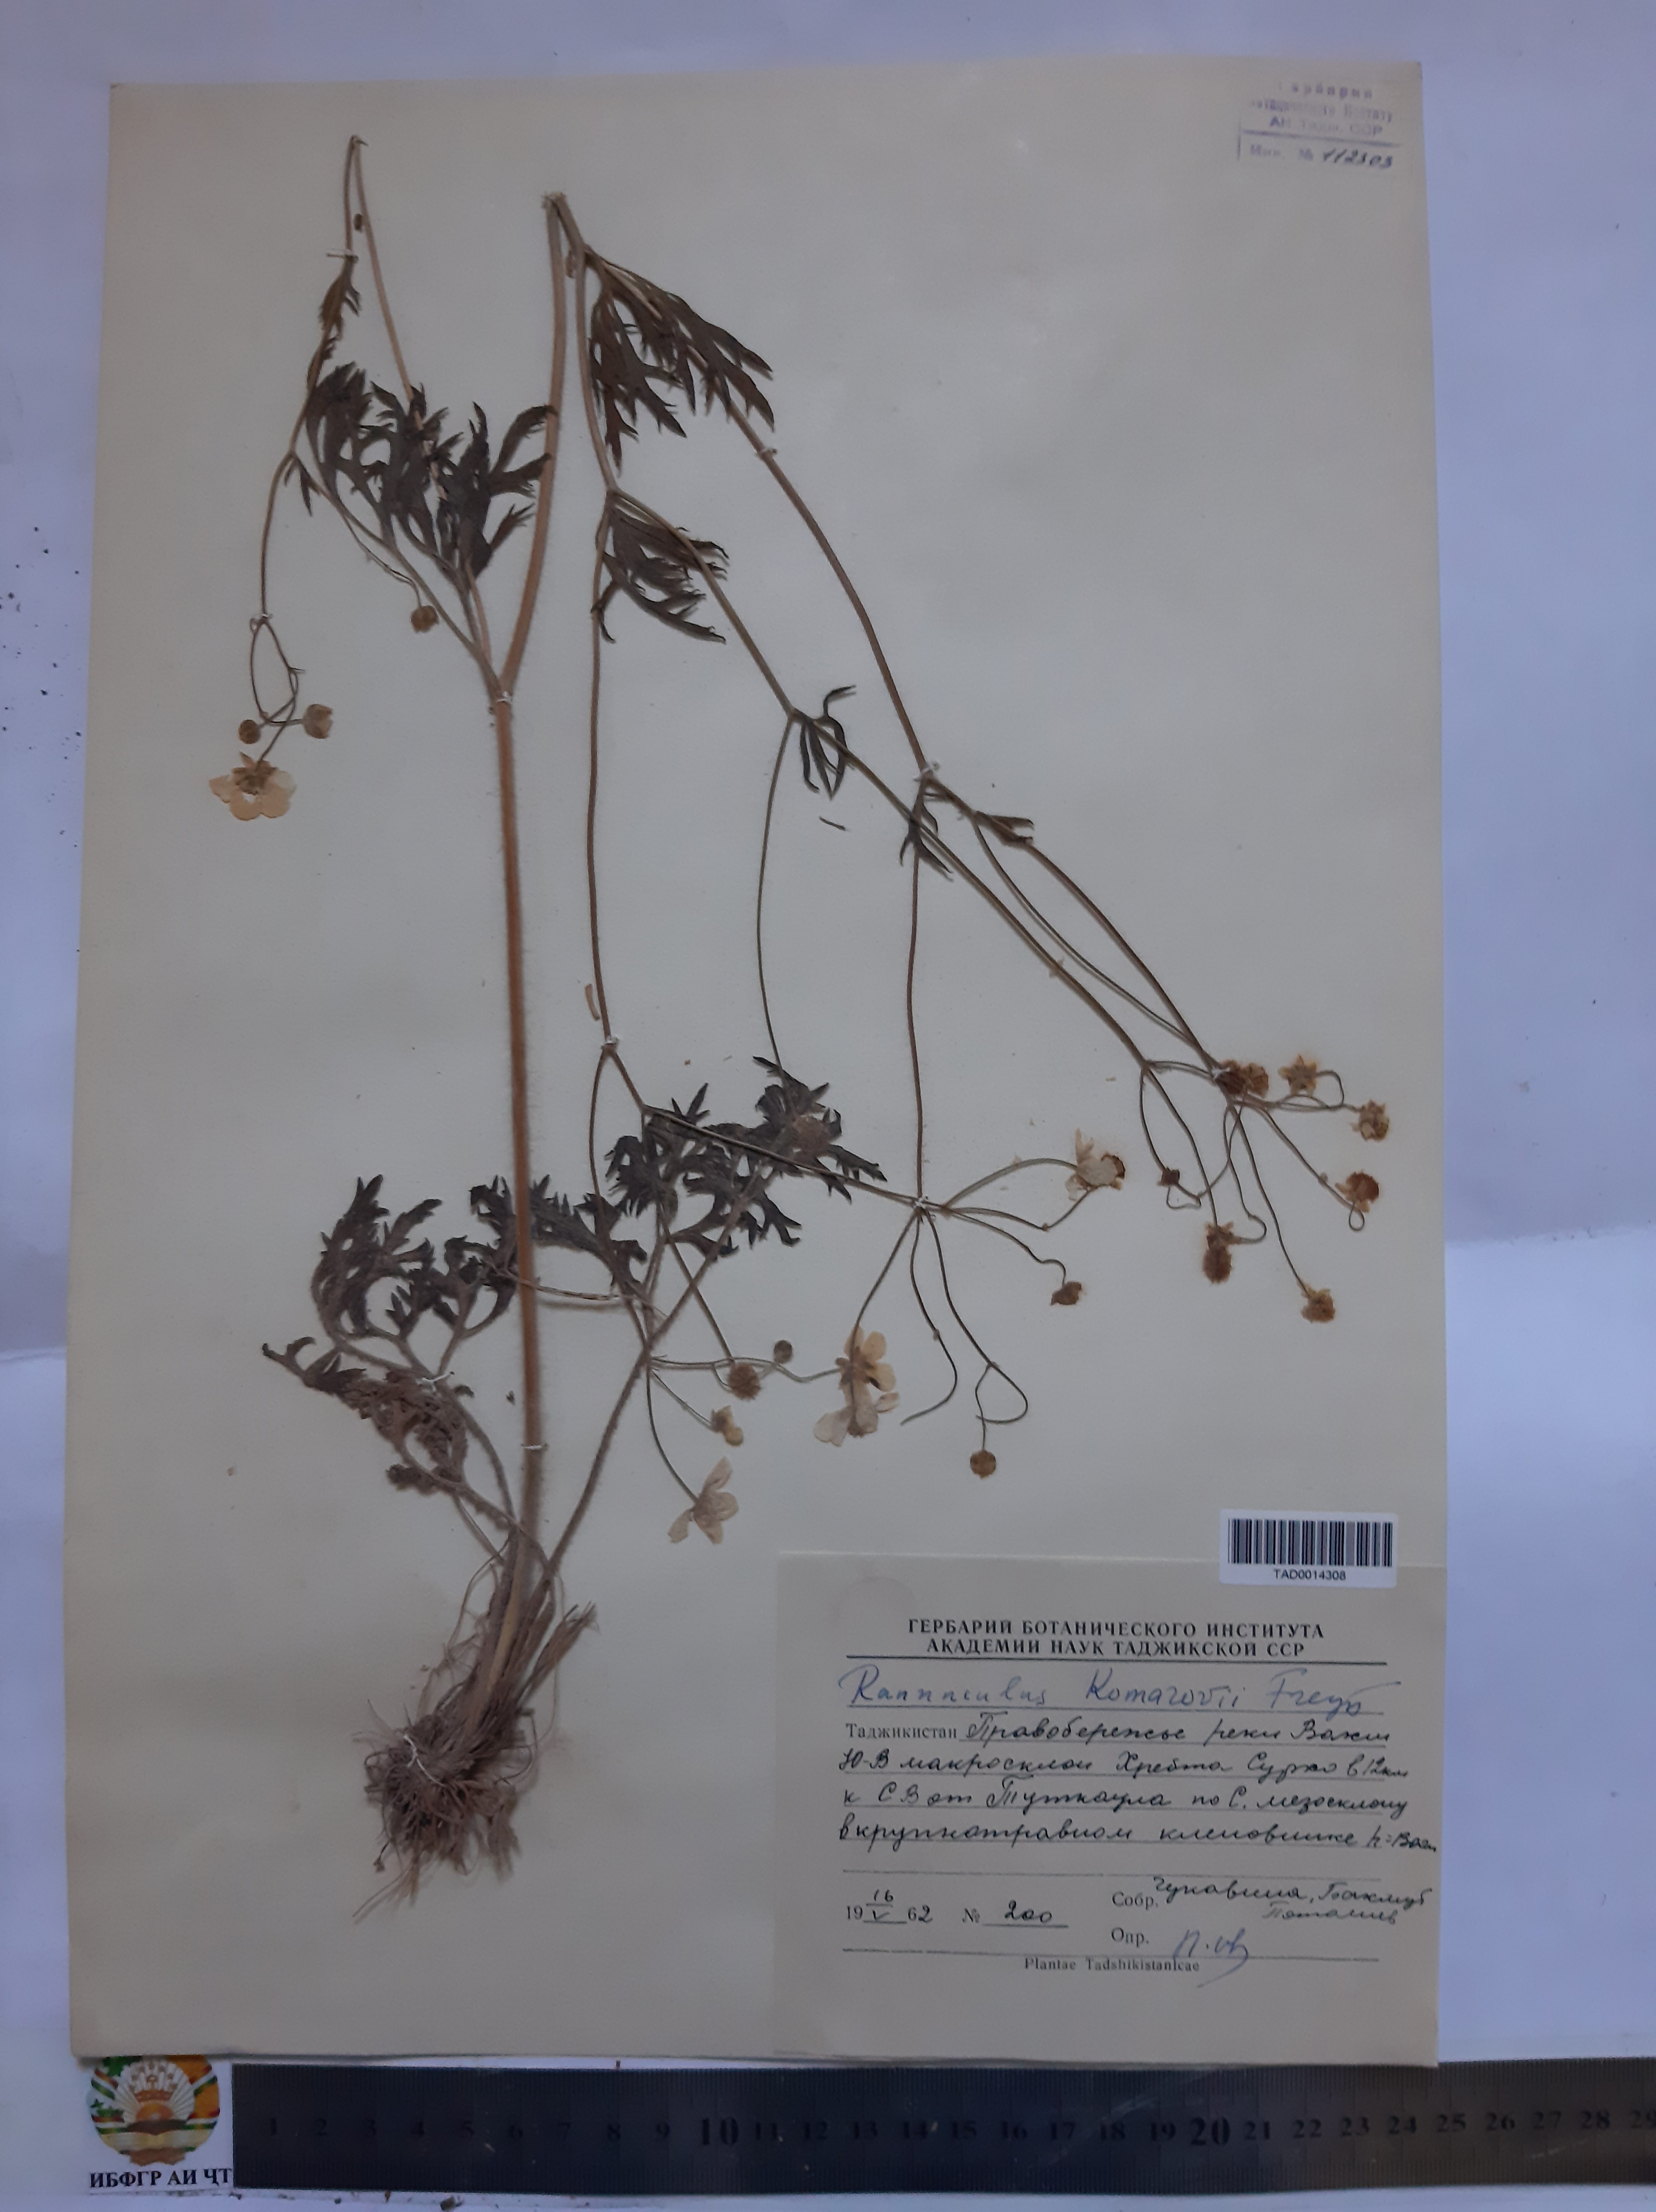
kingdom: Plantae
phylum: Tracheophyta
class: Magnoliopsida
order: Ranunculales
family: Ranunculaceae
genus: Ranunculus
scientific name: Ranunculus komarovii
